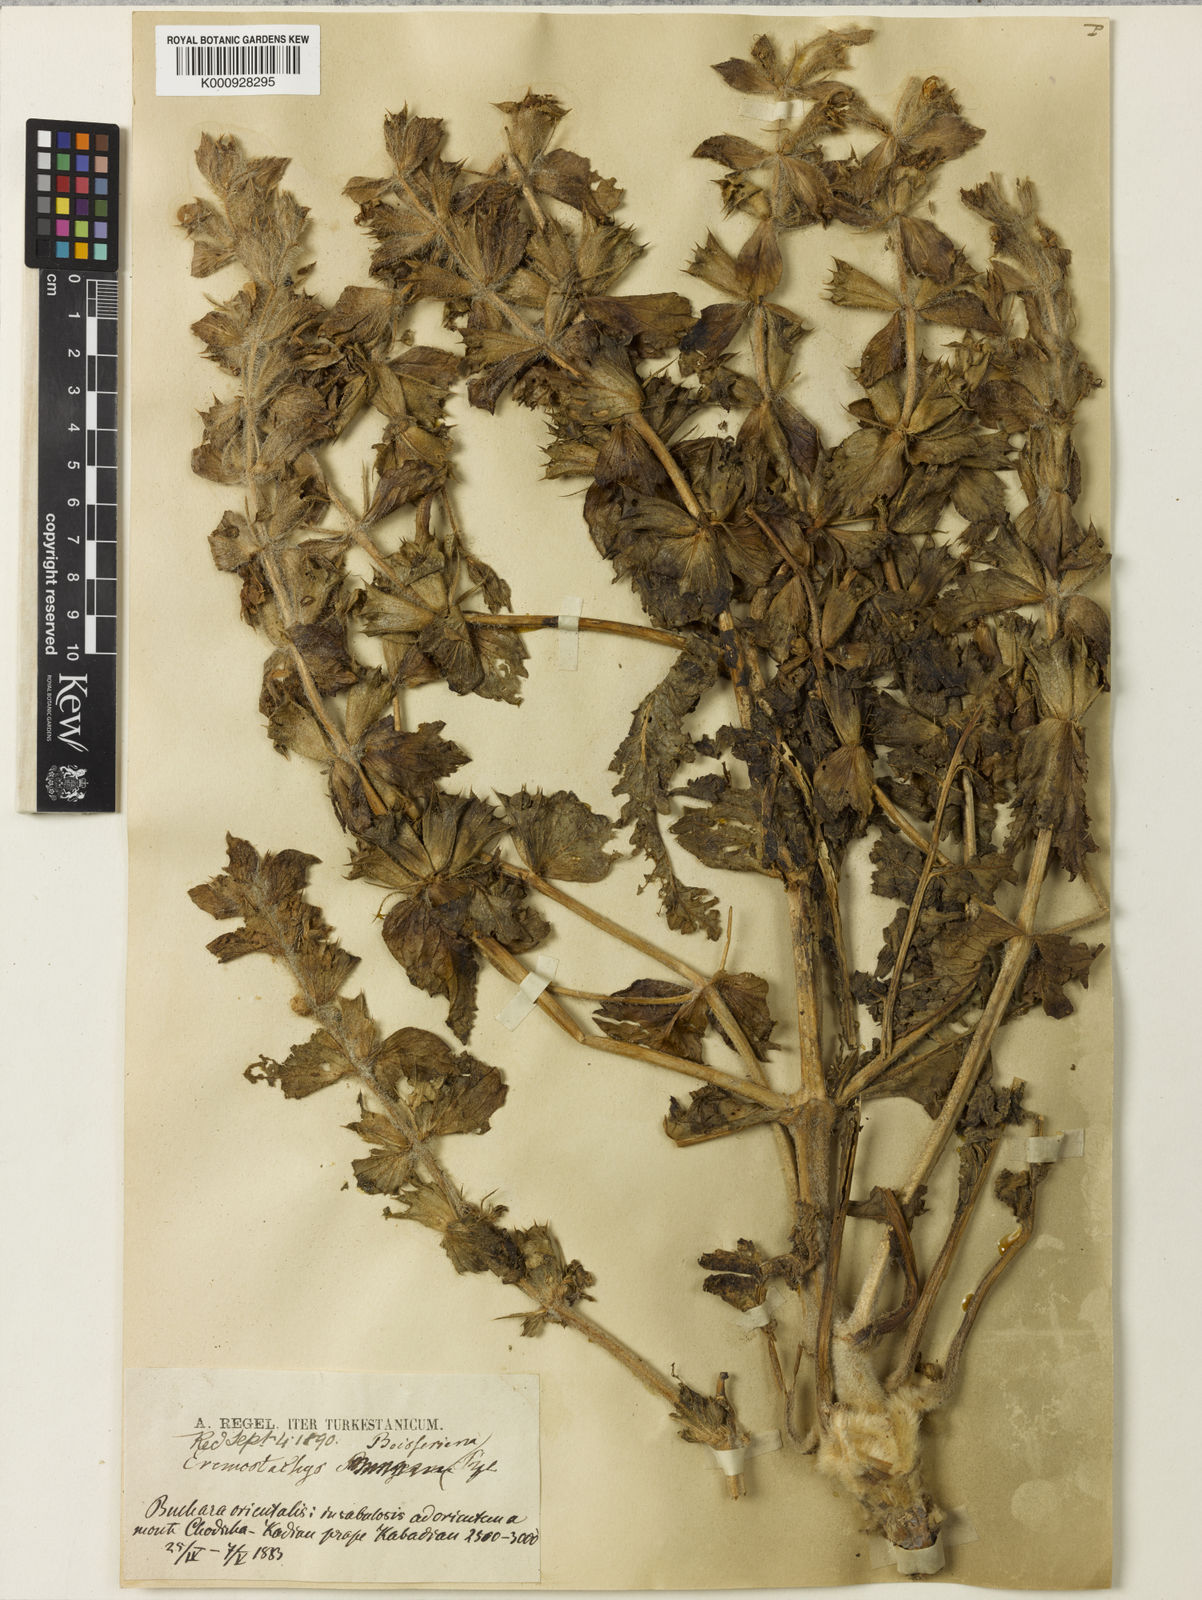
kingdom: Plantae
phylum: Tracheophyta
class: Magnoliopsida
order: Lamiales
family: Lamiaceae
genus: Phlomoides
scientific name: Phlomoides boissieriana
